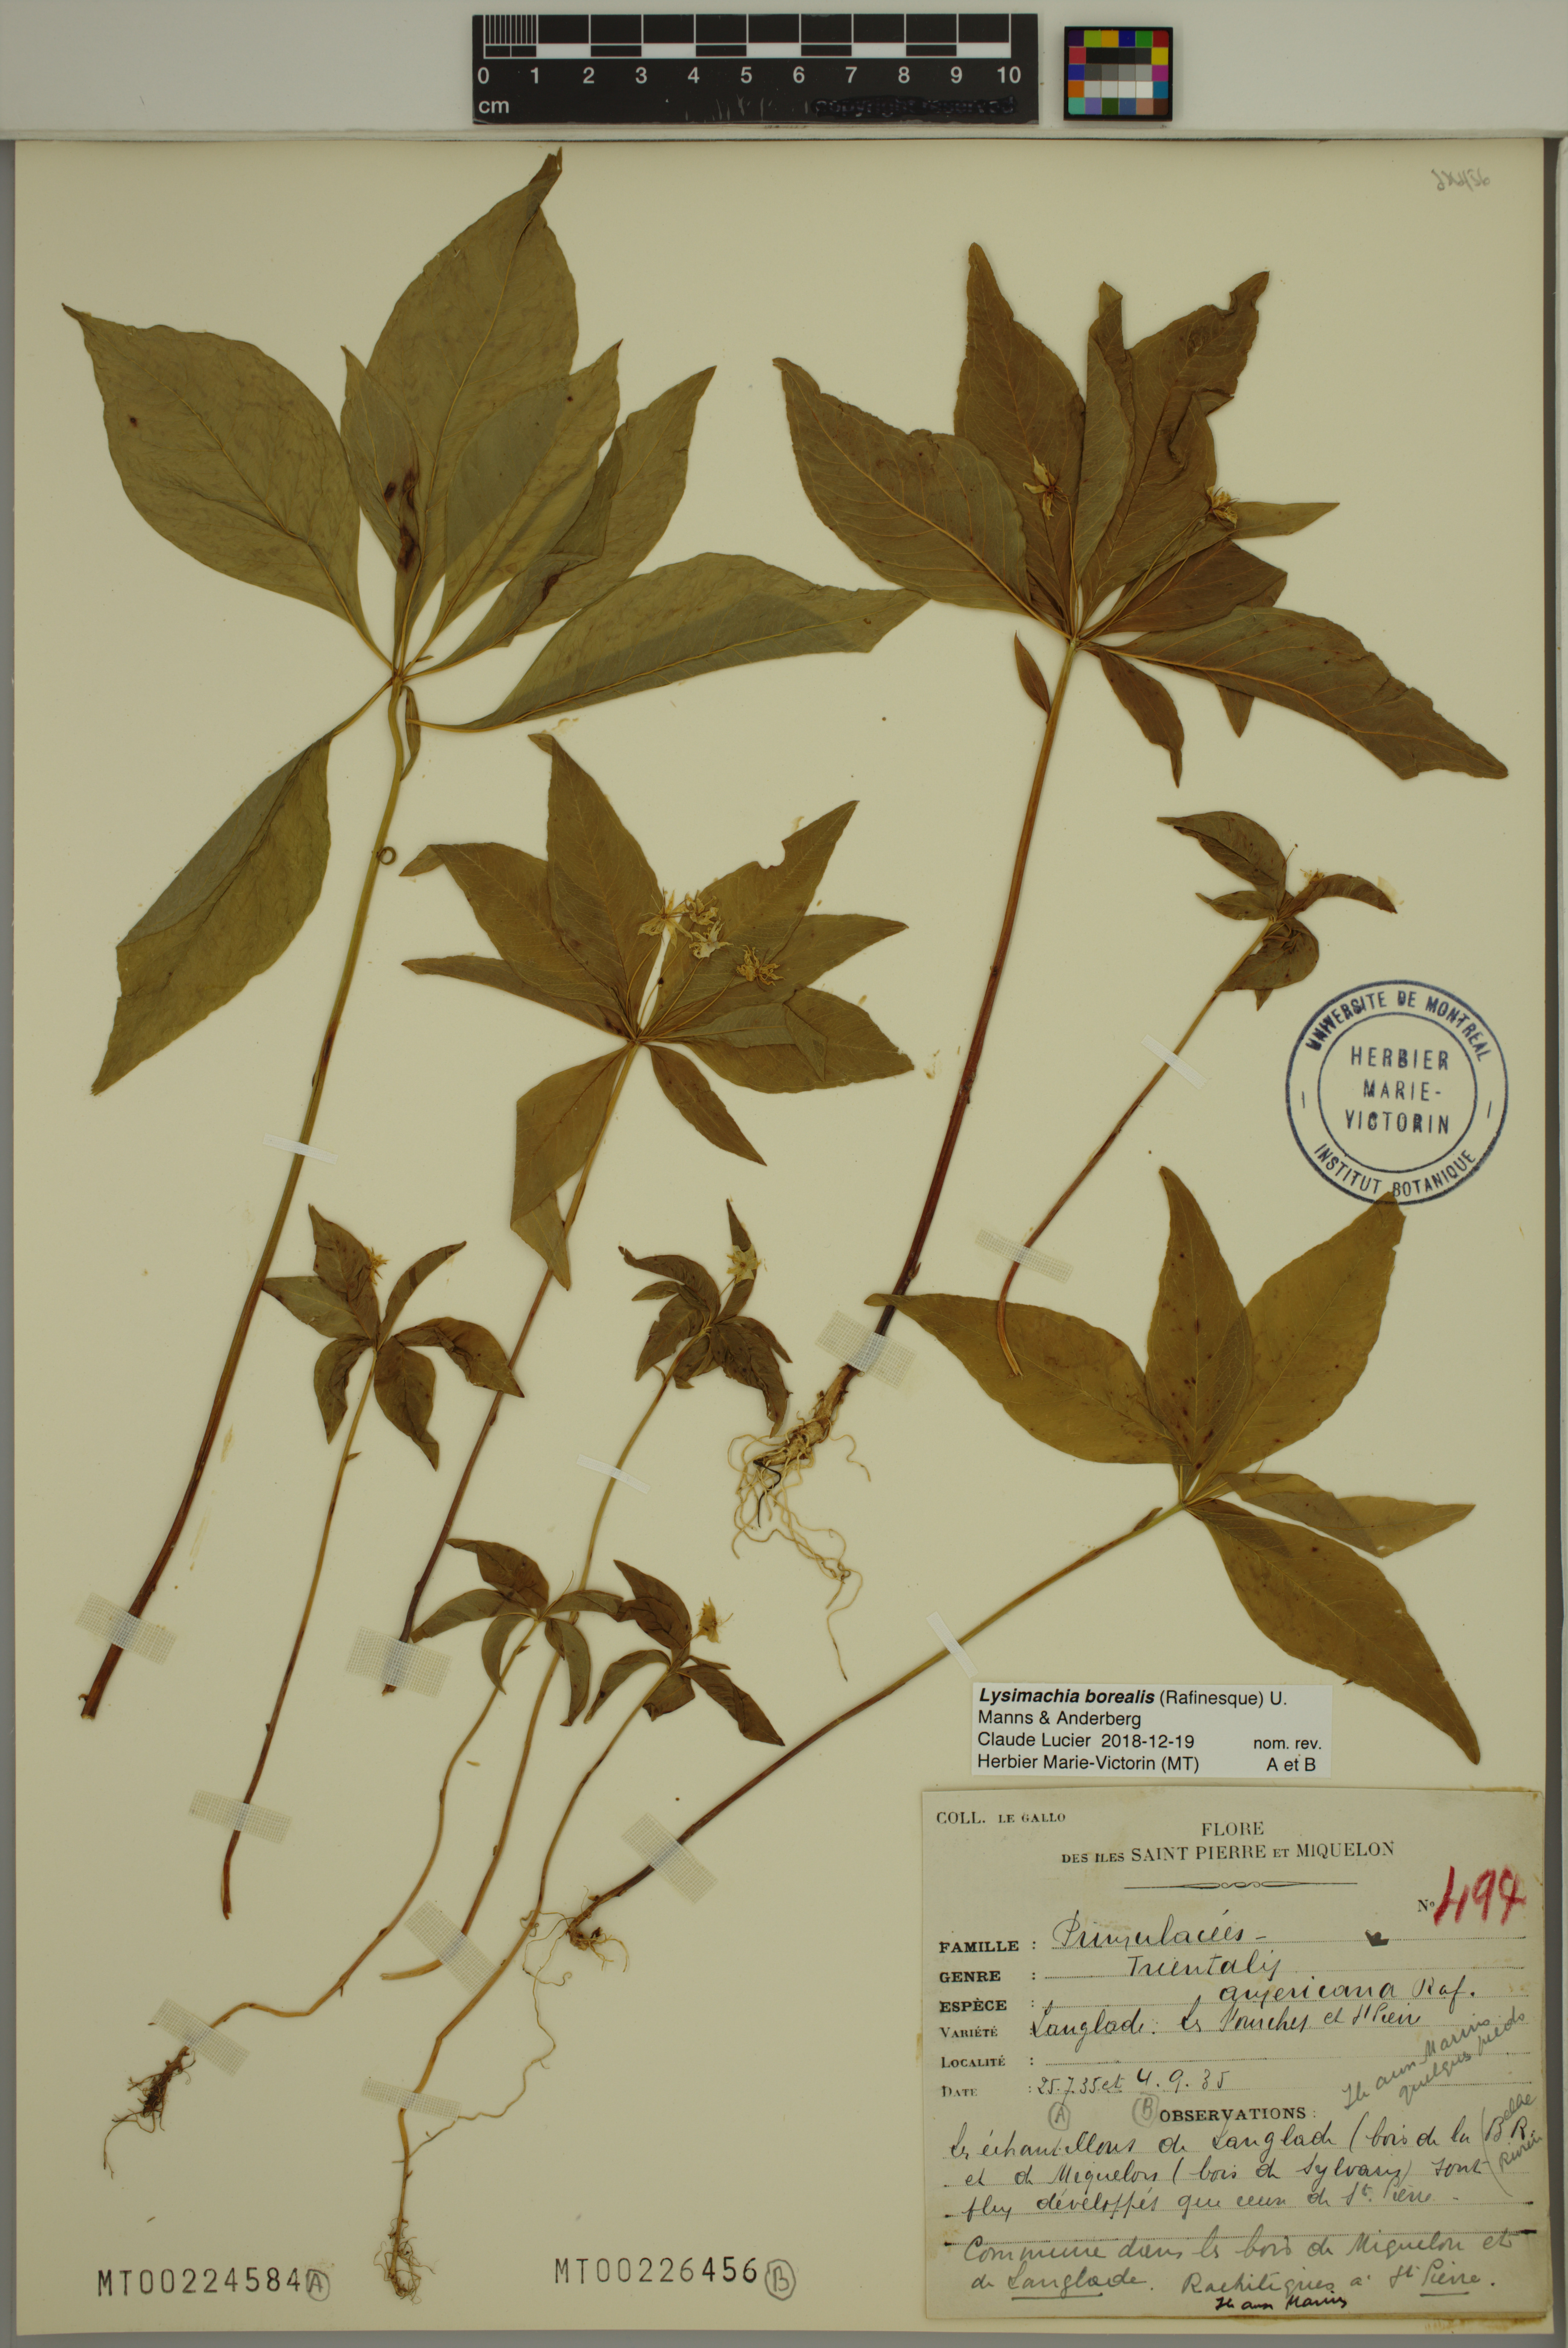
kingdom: Plantae
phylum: Tracheophyta
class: Magnoliopsida
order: Ericales
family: Primulaceae
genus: Lysimachia
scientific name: Lysimachia borealis
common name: American starflower
